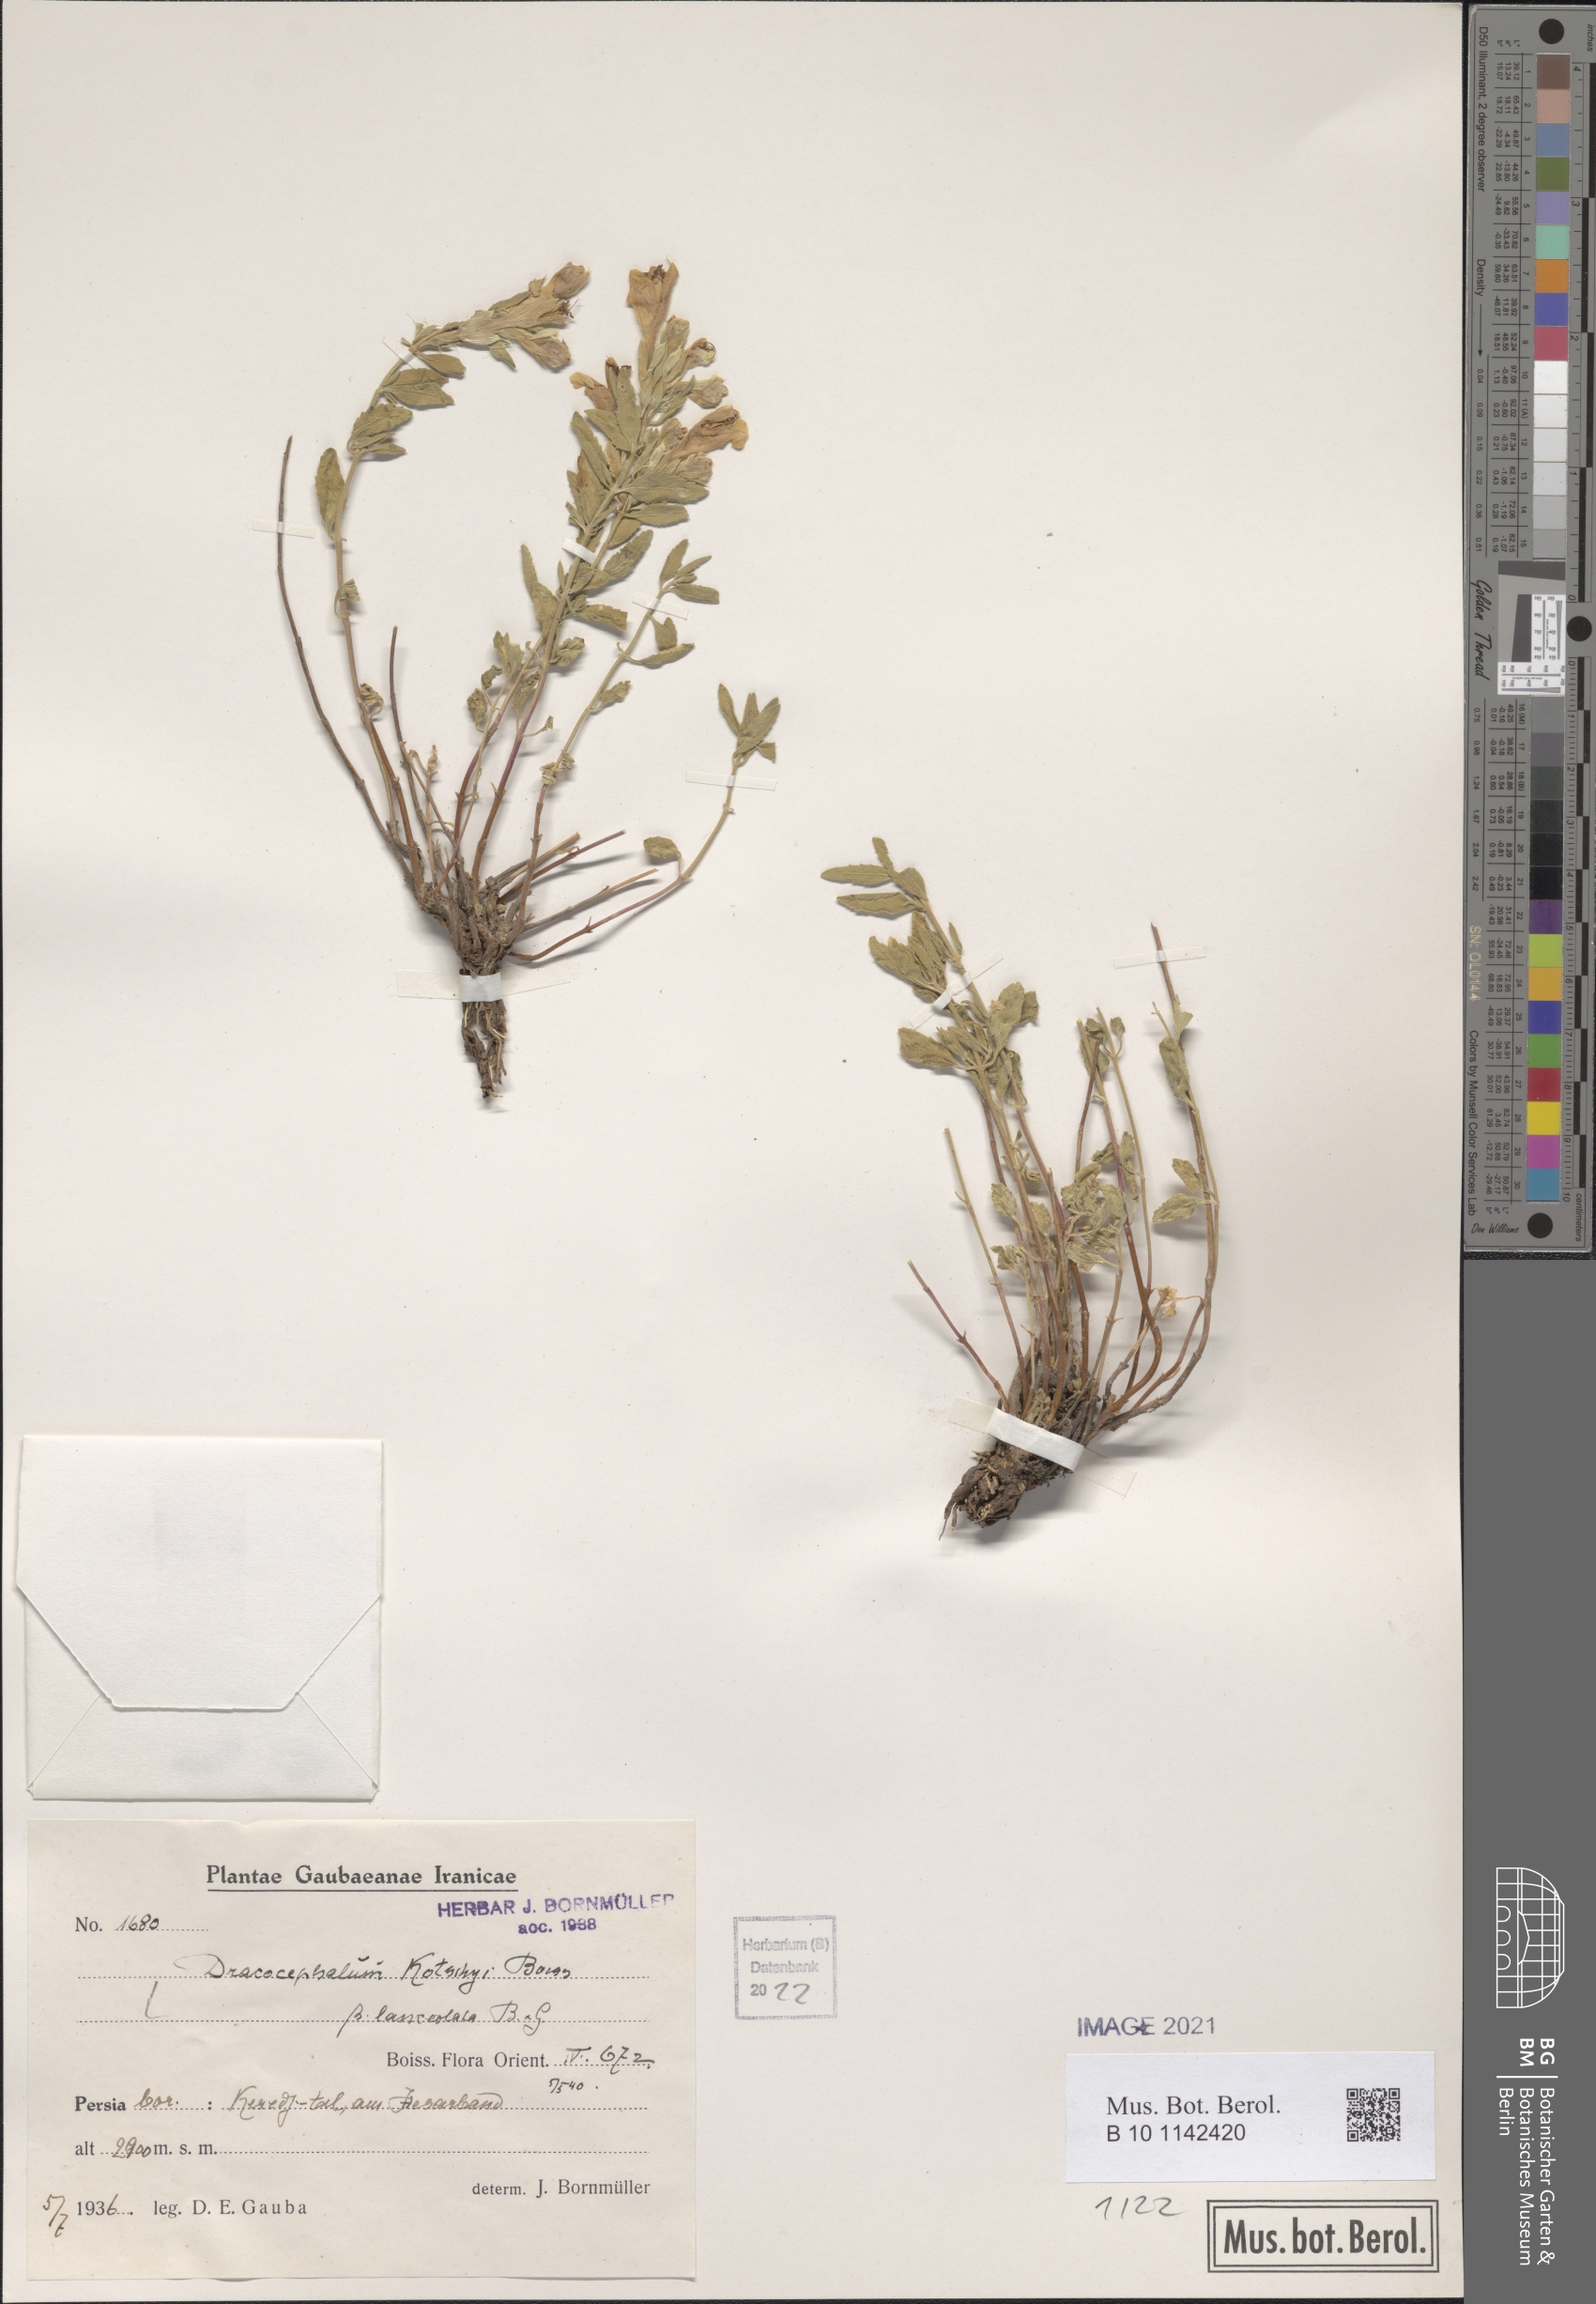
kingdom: Plantae
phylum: Tracheophyta
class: Magnoliopsida
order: Lamiales
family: Lamiaceae
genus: Dracocephalum
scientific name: Dracocephalum kotschyi
